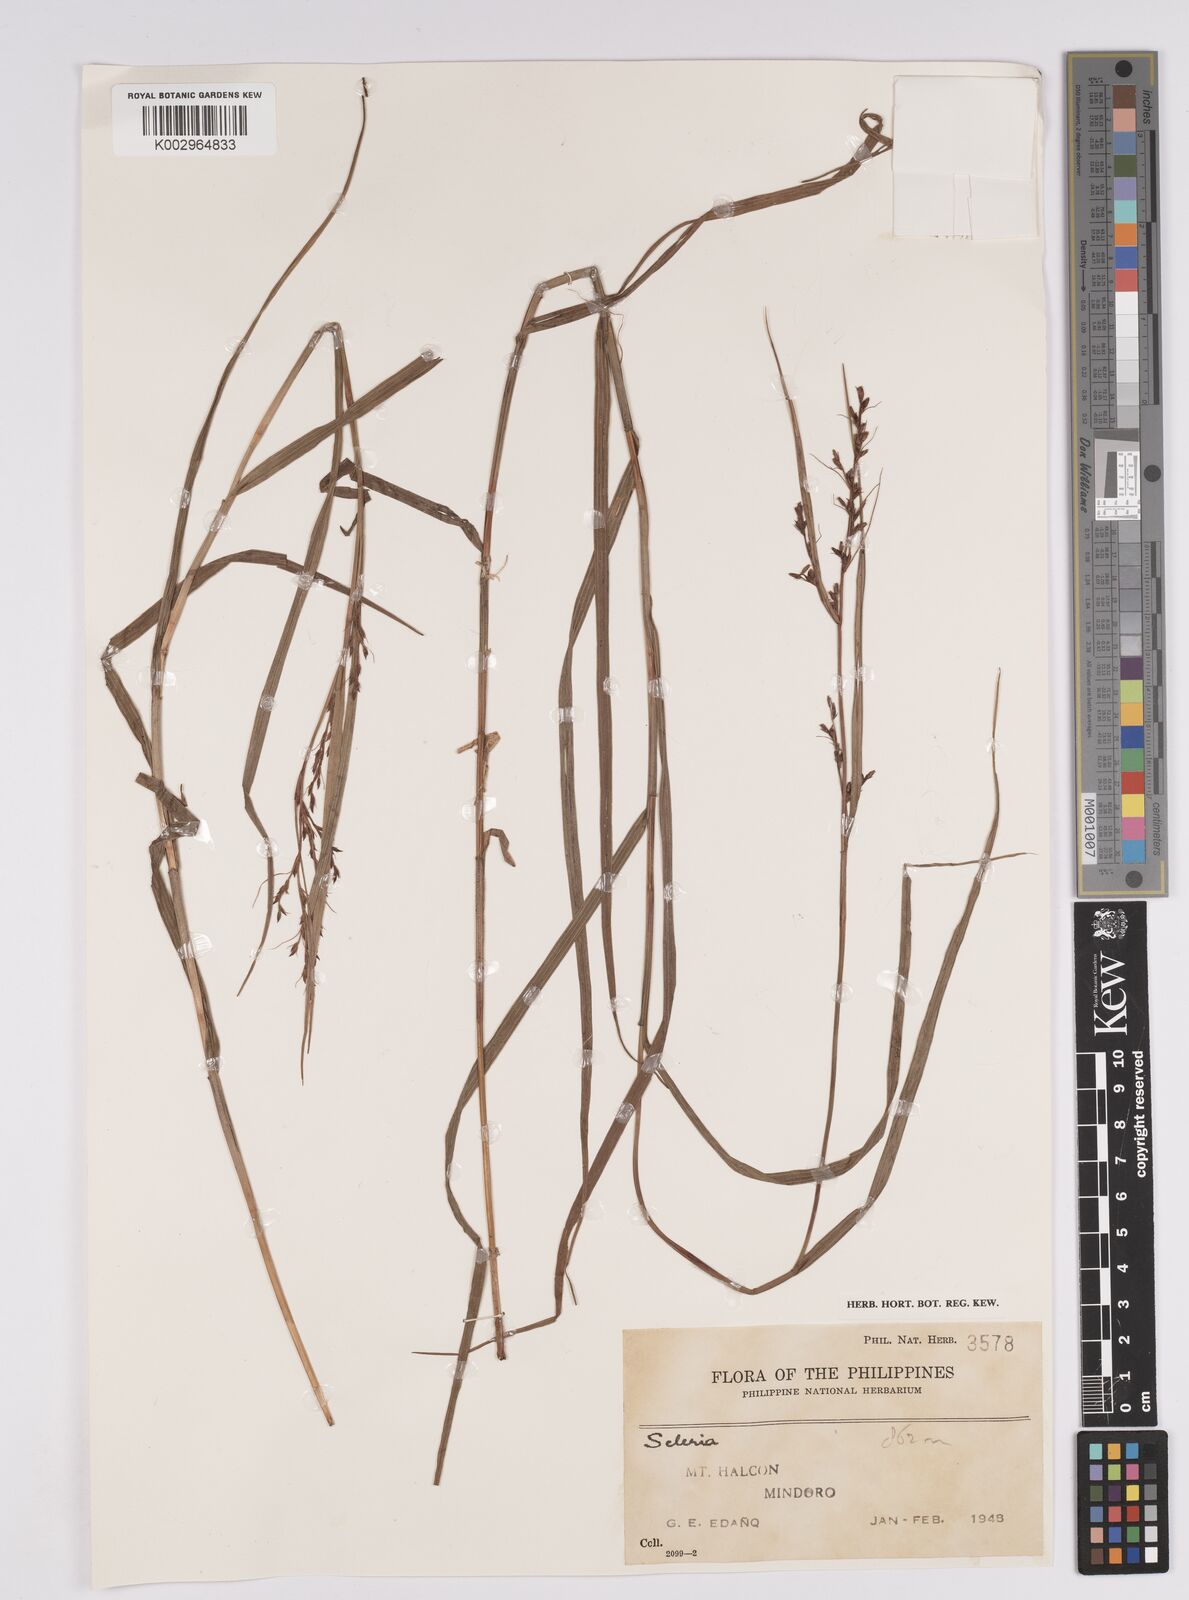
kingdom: Plantae
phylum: Tracheophyta
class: Liliopsida
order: Poales
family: Cyperaceae
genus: Scleria
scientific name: Scleria
